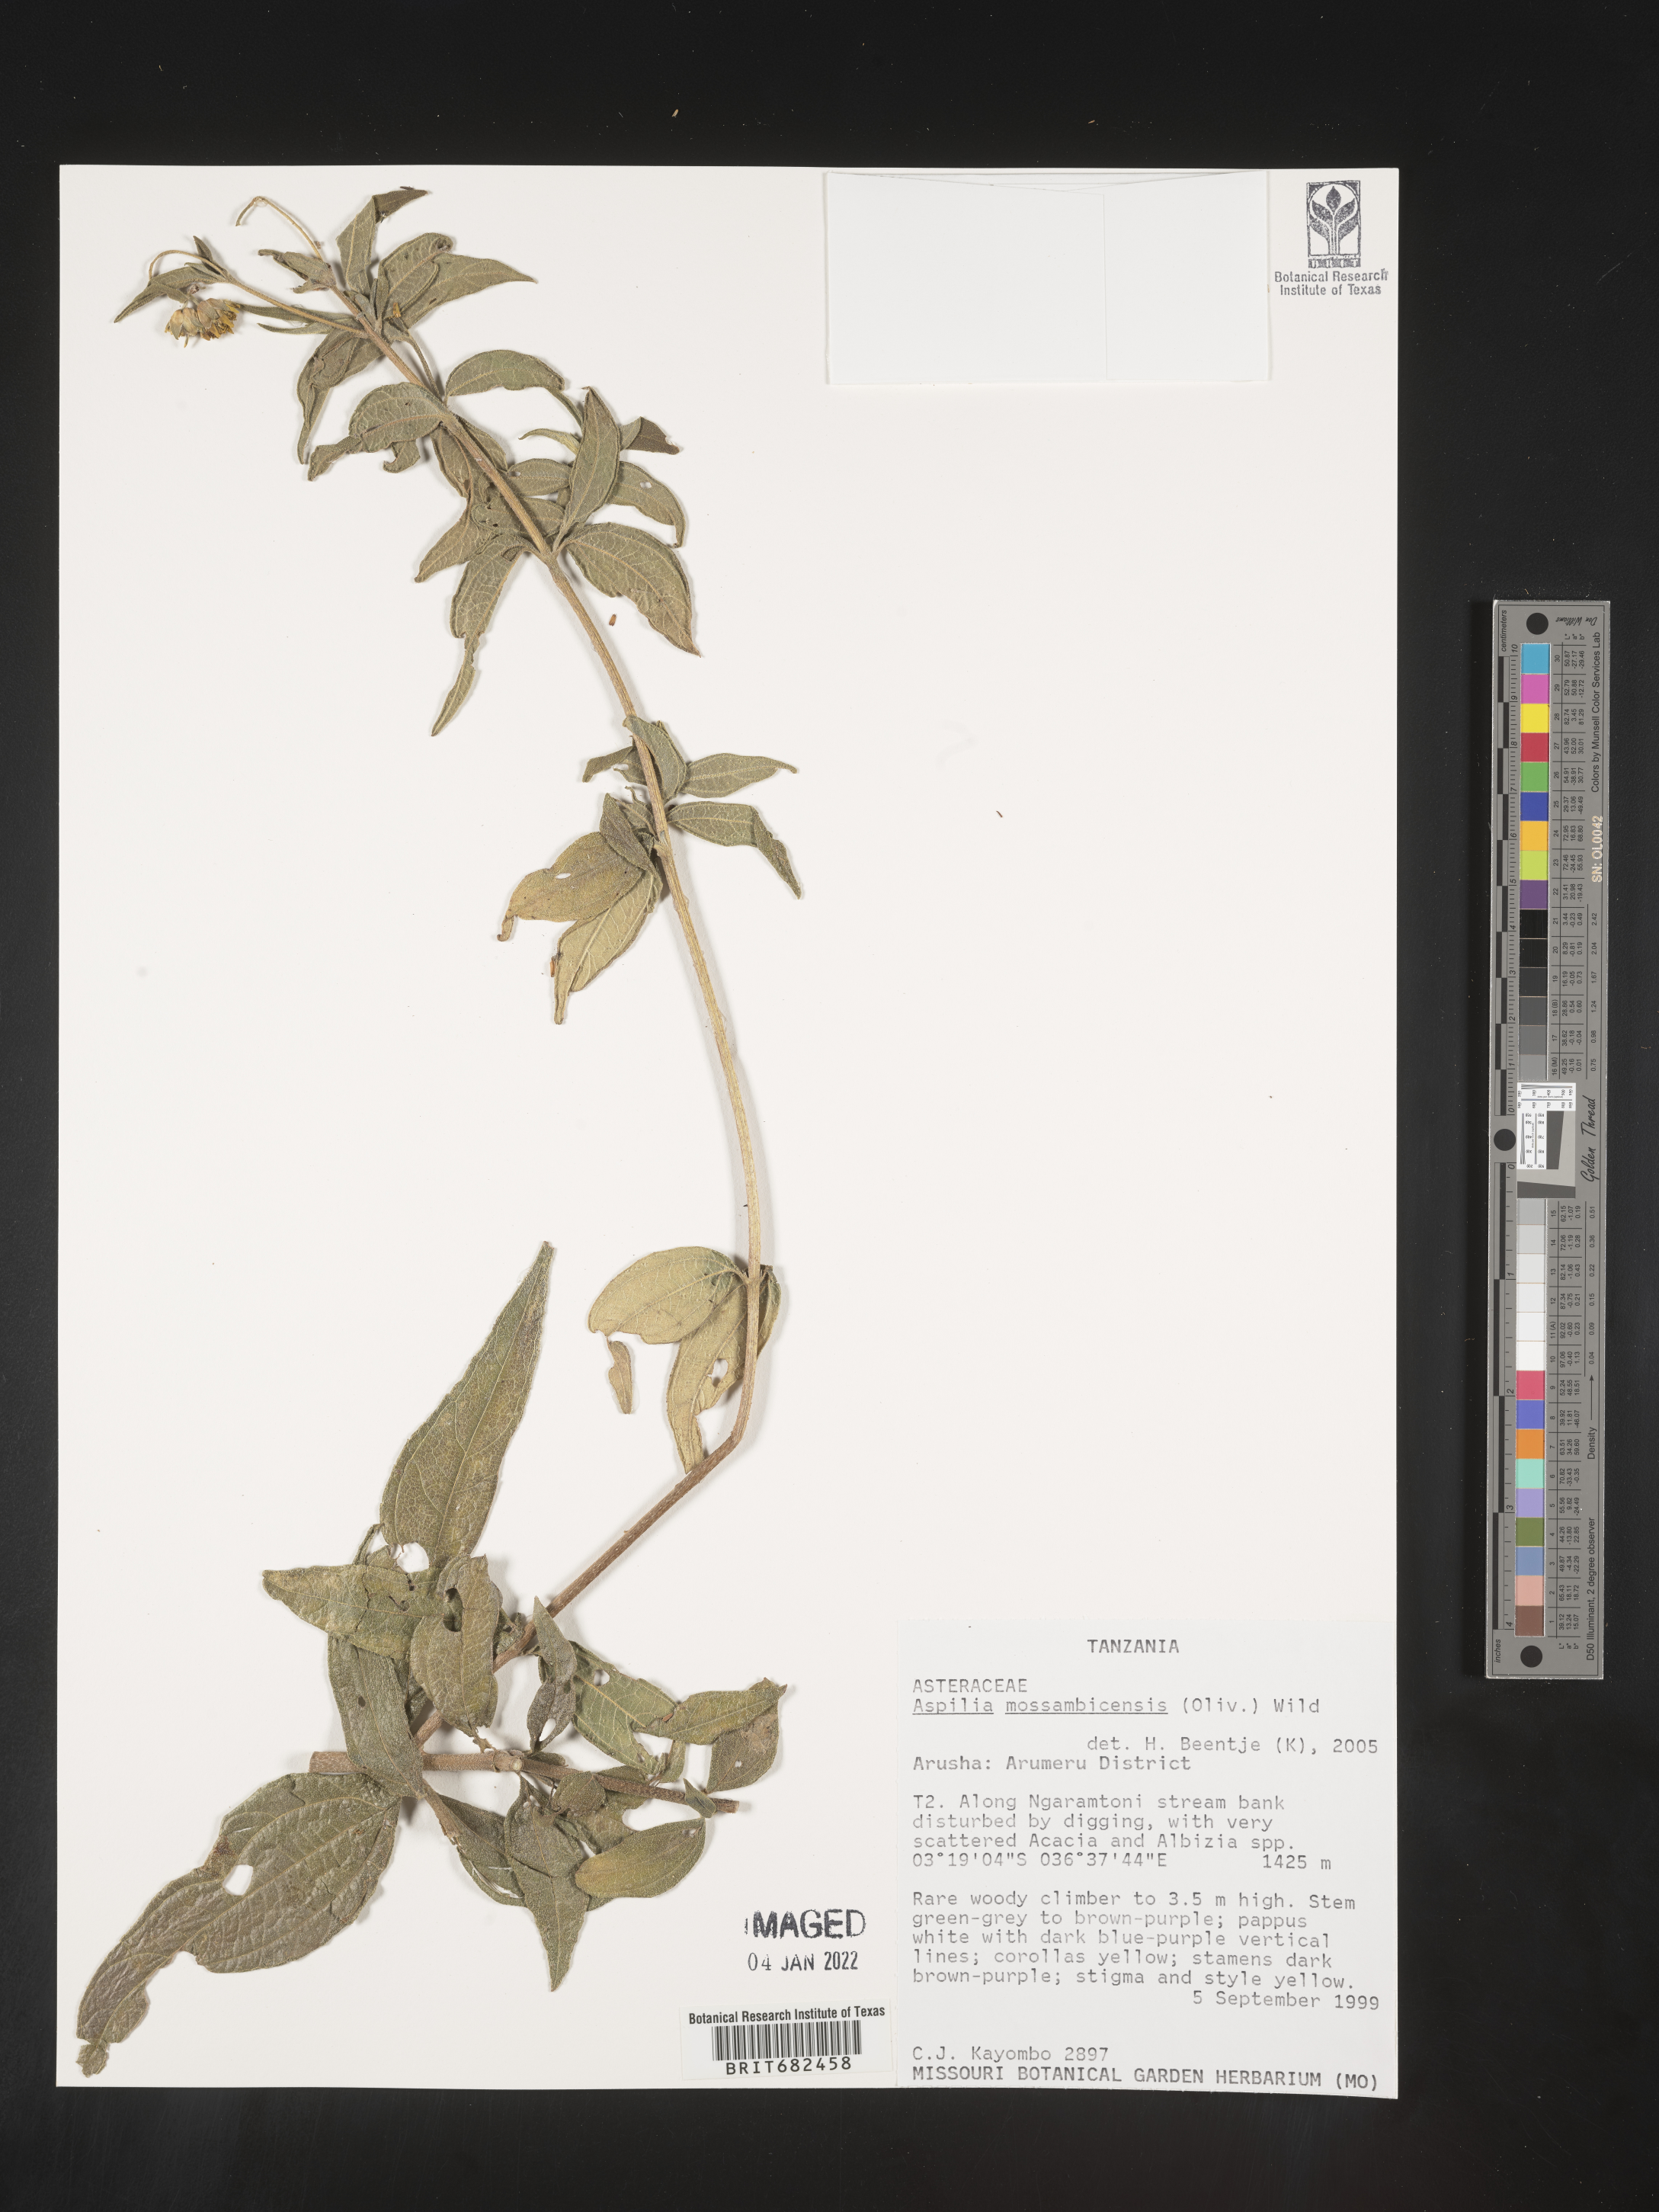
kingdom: Plantae
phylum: Tracheophyta
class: Magnoliopsida
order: Asterales
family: Asteraceae
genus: Aspilia
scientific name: Aspilia
